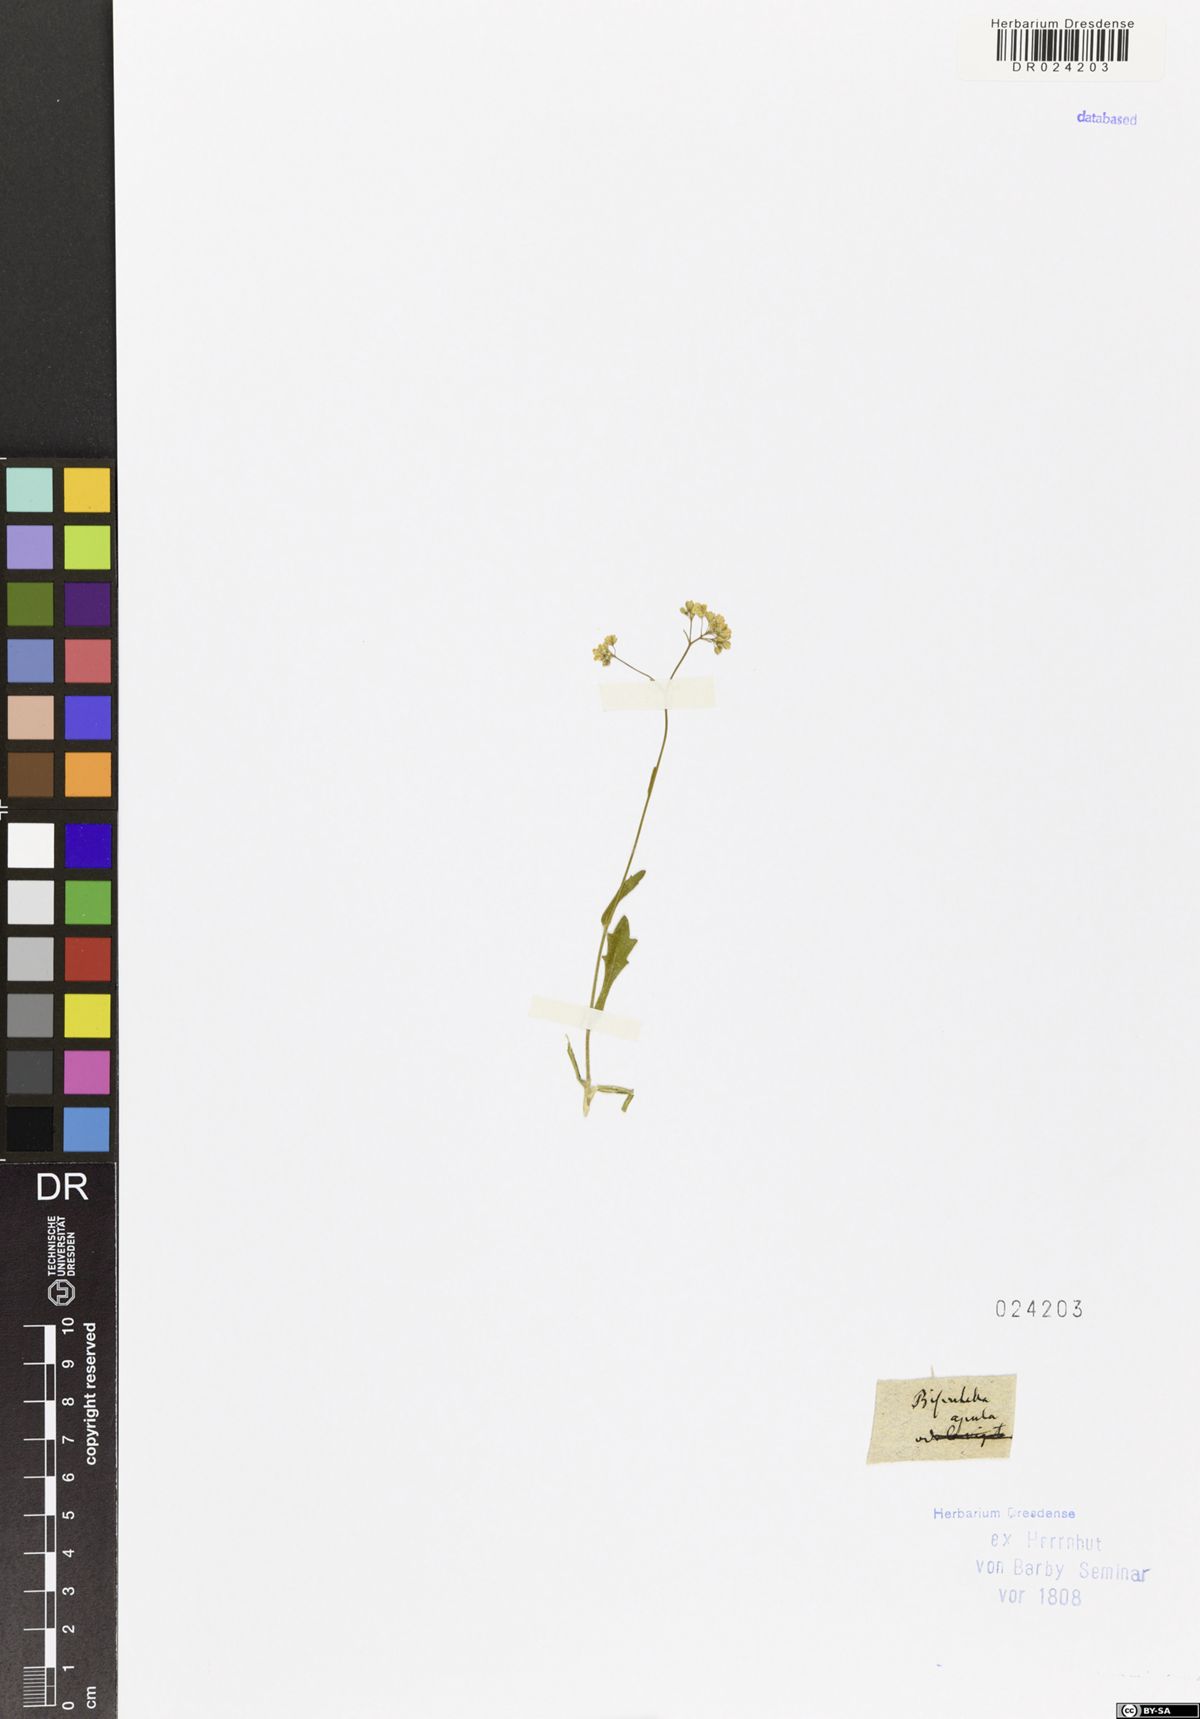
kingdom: Plantae
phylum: Tracheophyta
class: Magnoliopsida
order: Brassicales
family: Brassicaceae
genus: Biscutella
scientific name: Biscutella didyma
